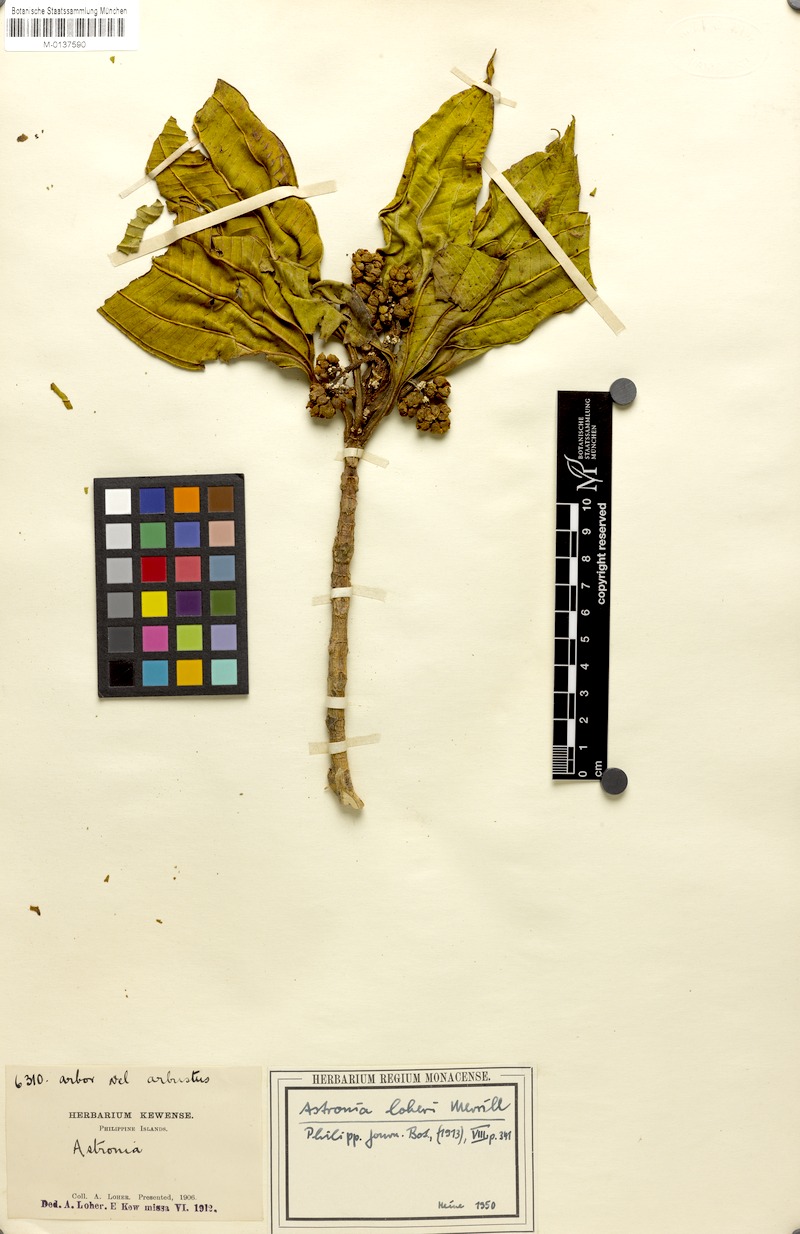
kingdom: Plantae
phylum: Tracheophyta
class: Magnoliopsida
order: Myrtales
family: Melastomataceae
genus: Astronia
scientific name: Astronia lagunensis
